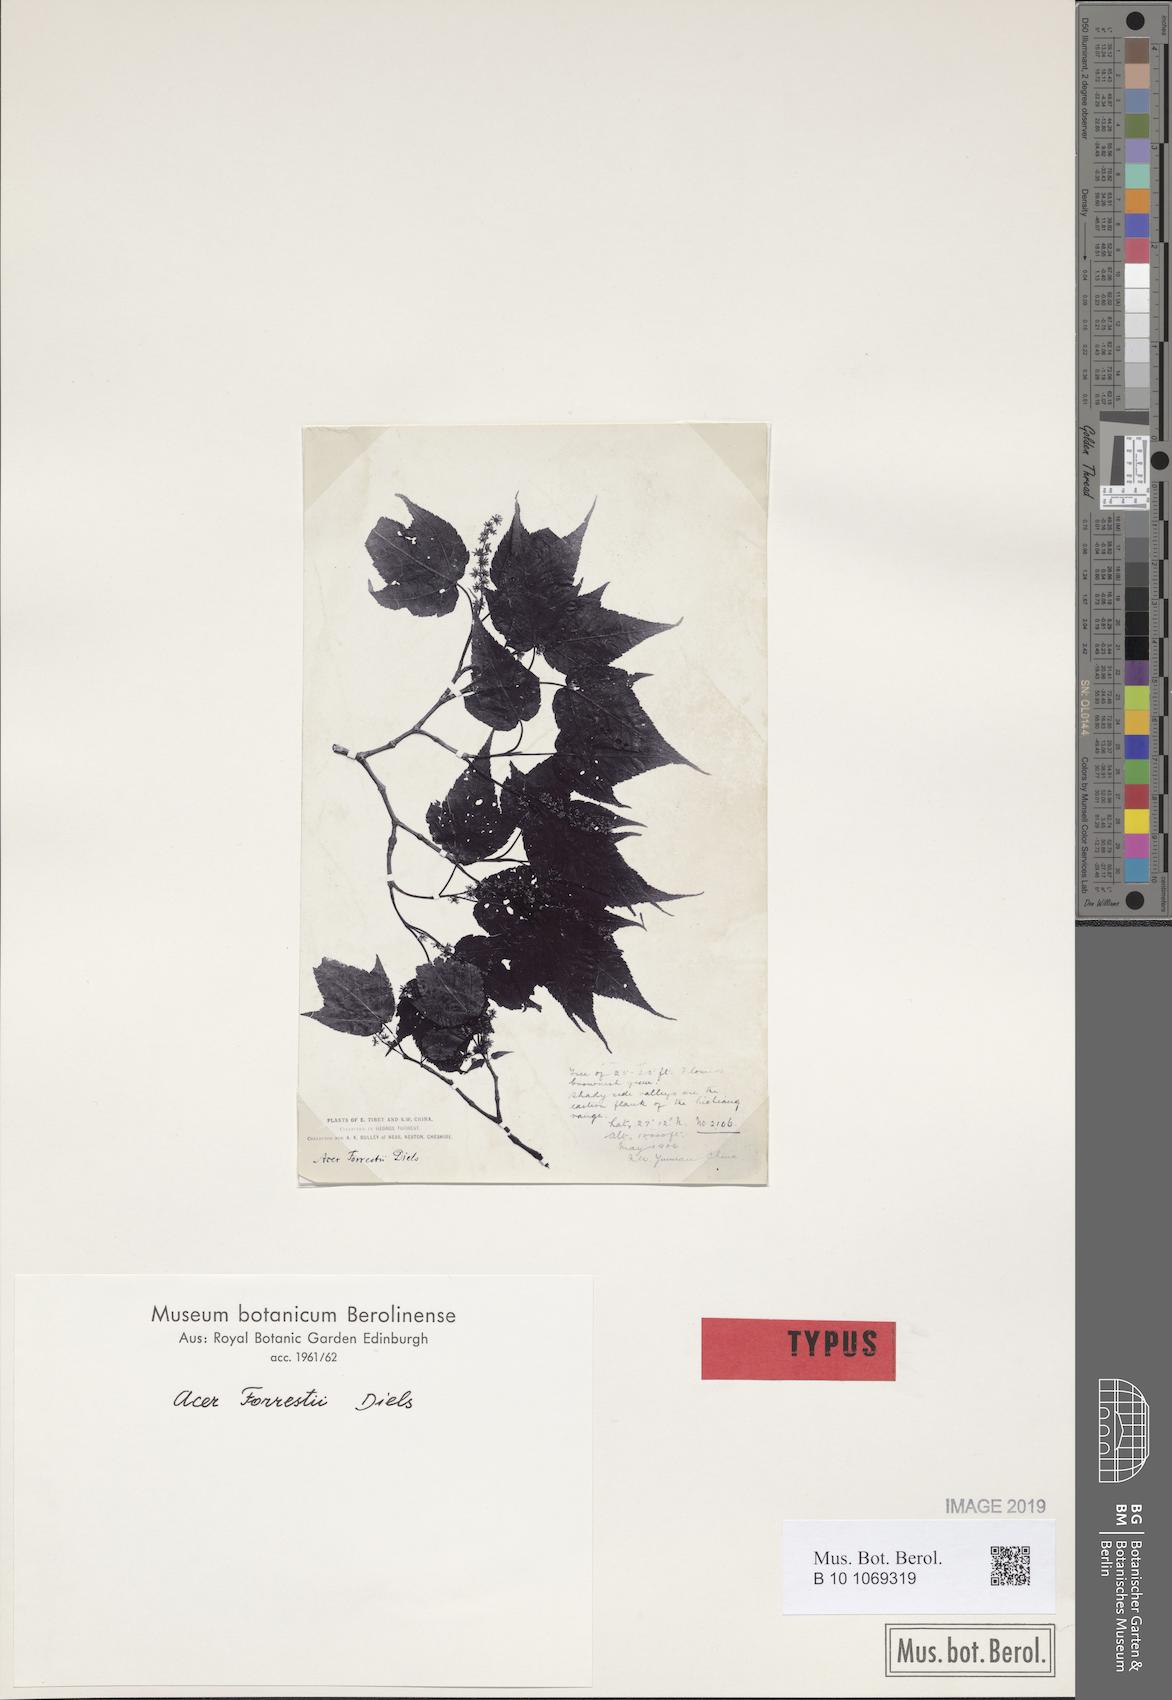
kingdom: Plantae
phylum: Tracheophyta
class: Magnoliopsida
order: Sapindales
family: Sapindaceae
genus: Acer
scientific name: Acer forrestii
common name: Forrest's maple
